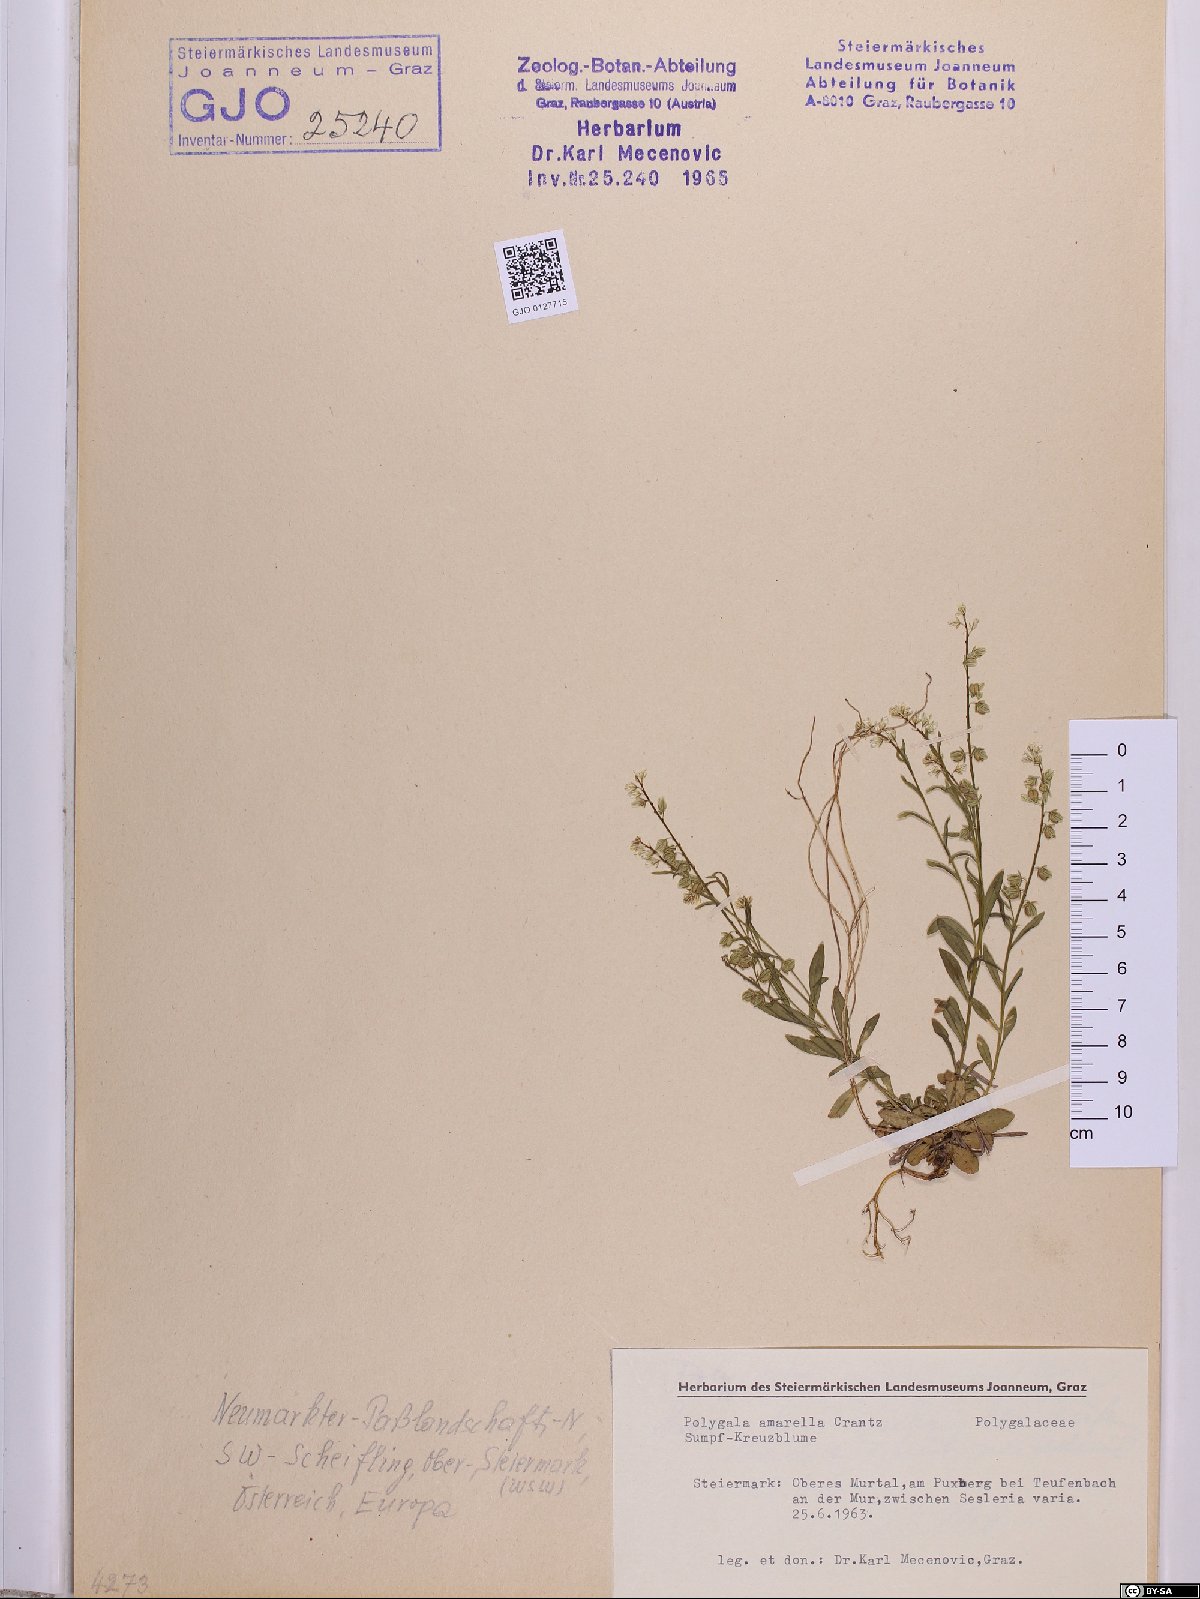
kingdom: Plantae
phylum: Tracheophyta
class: Magnoliopsida
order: Fabales
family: Polygalaceae
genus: Polygala
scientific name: Polygala amarella
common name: Dwarf milkwort
